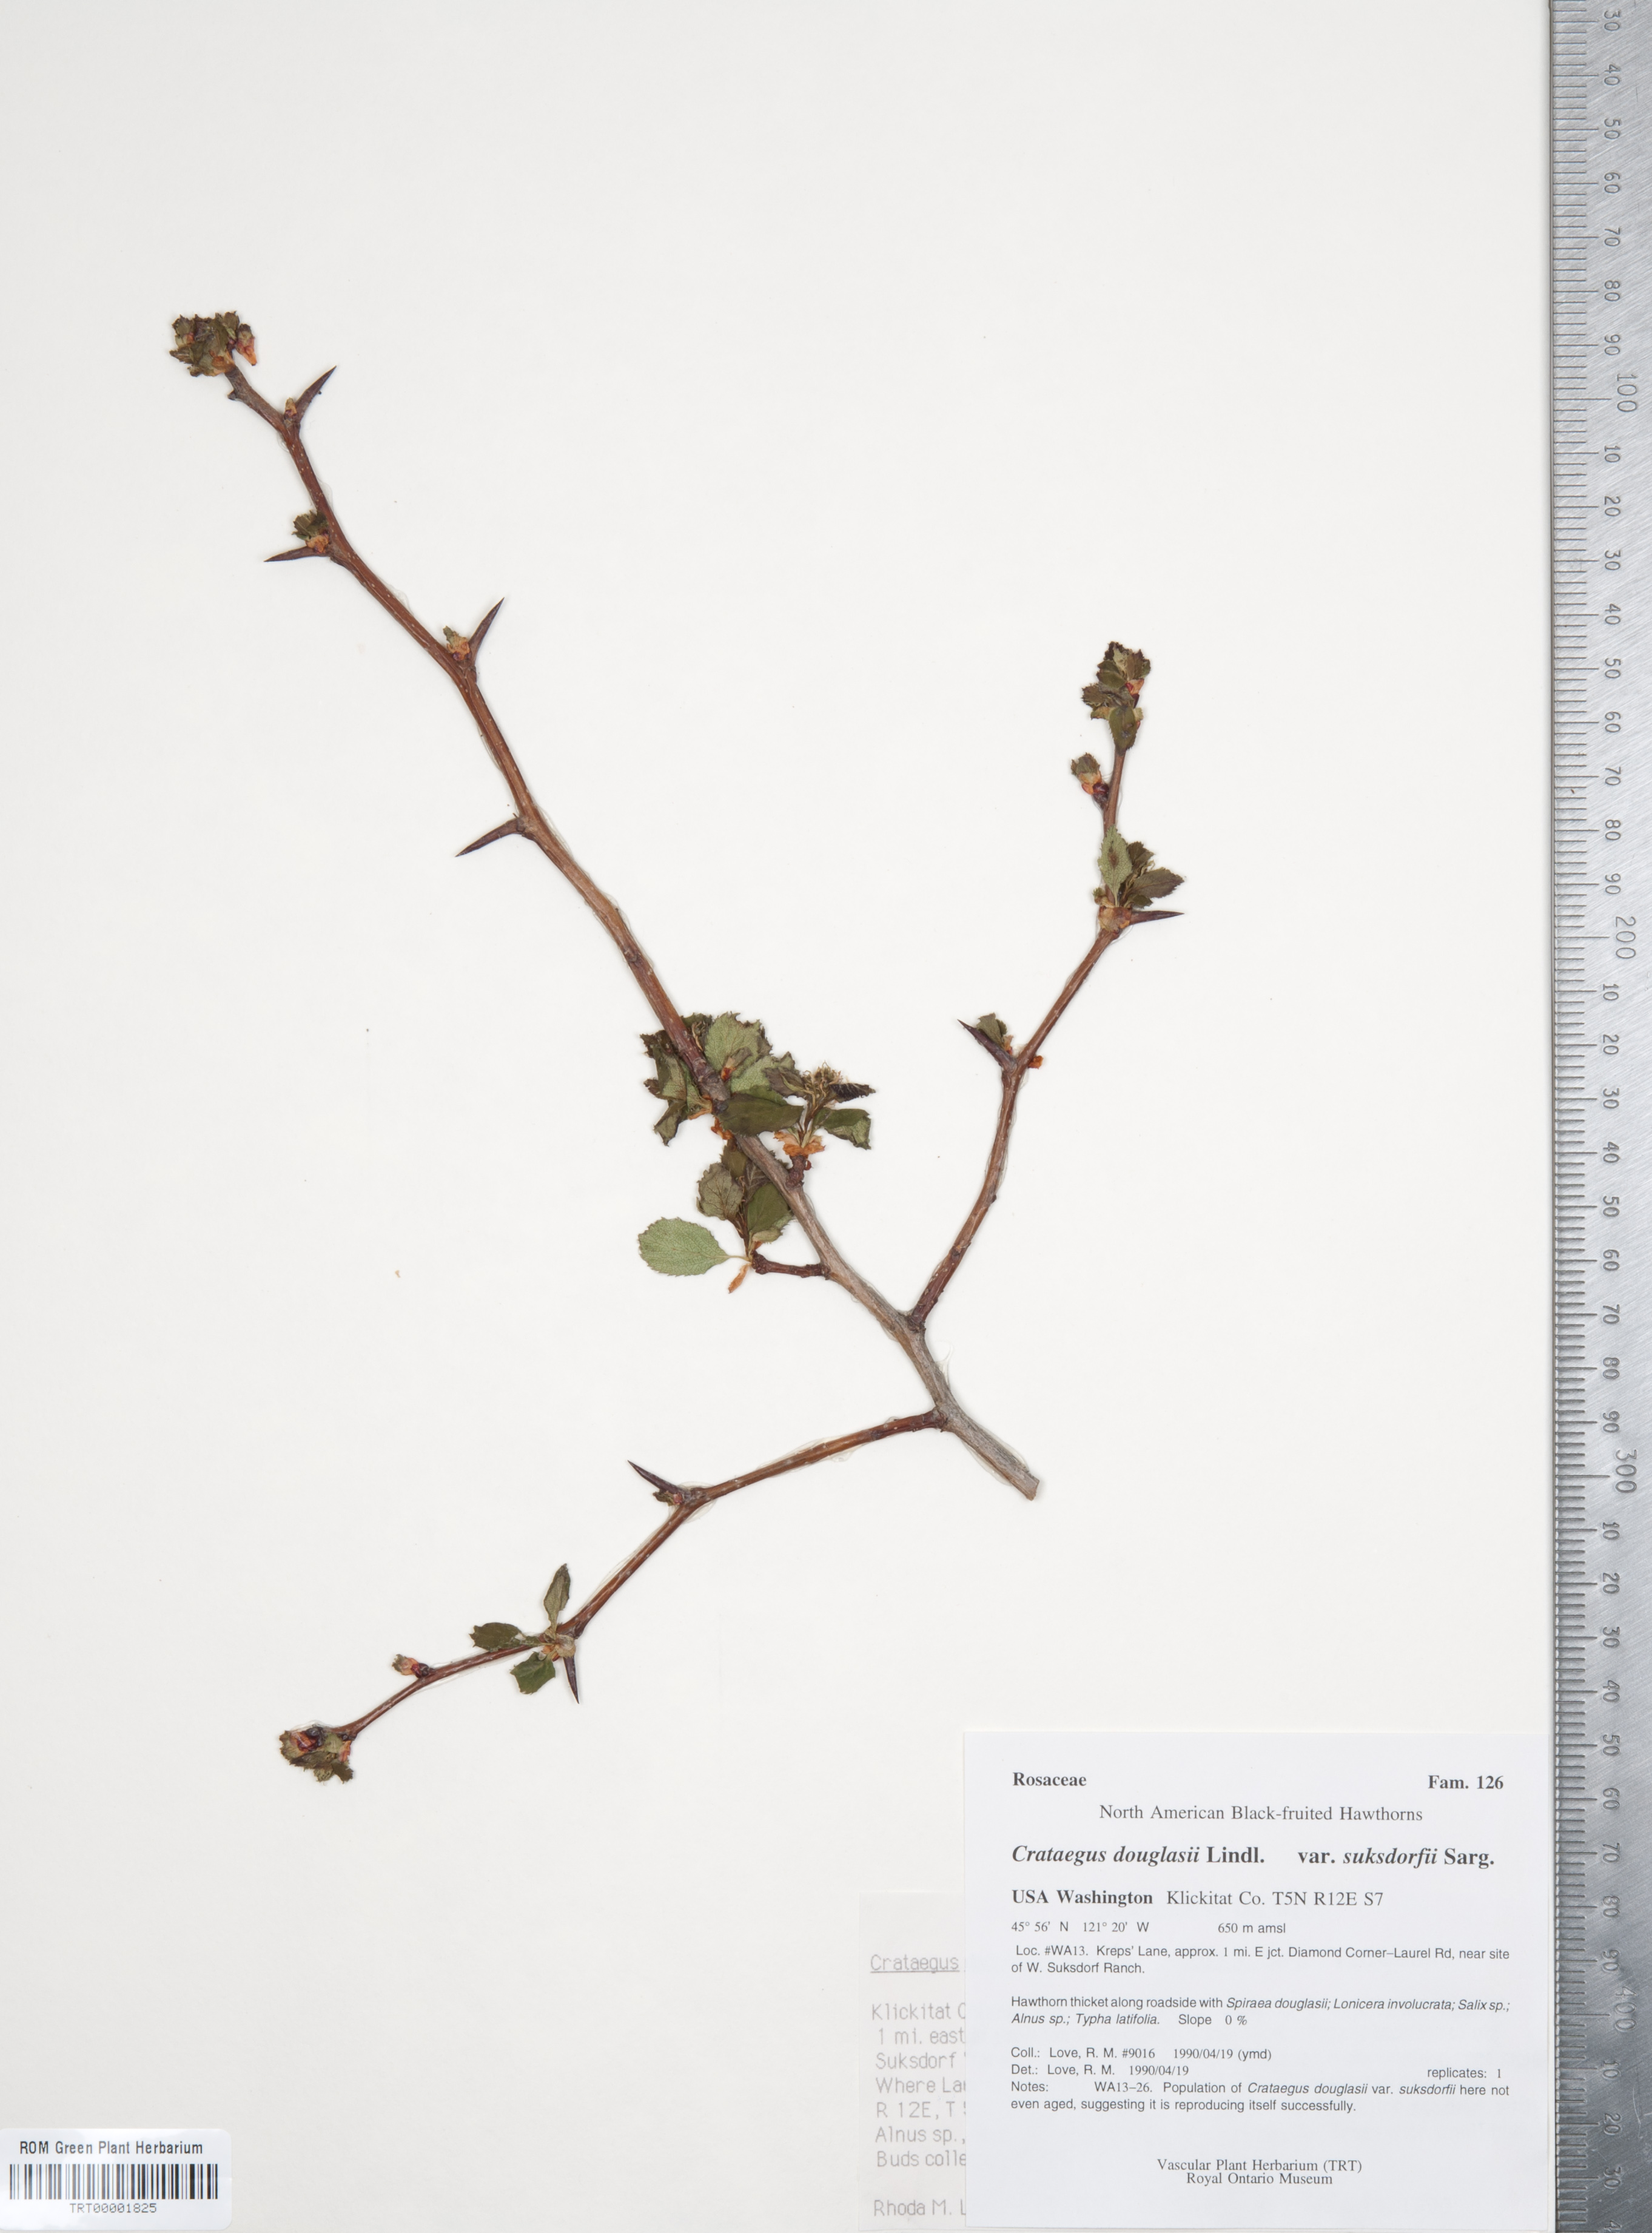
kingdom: Plantae
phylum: Tracheophyta
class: Magnoliopsida
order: Rosales
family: Rosaceae
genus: Crataegus
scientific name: Crataegus gaylussacia
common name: Huckleberry hawthorn
